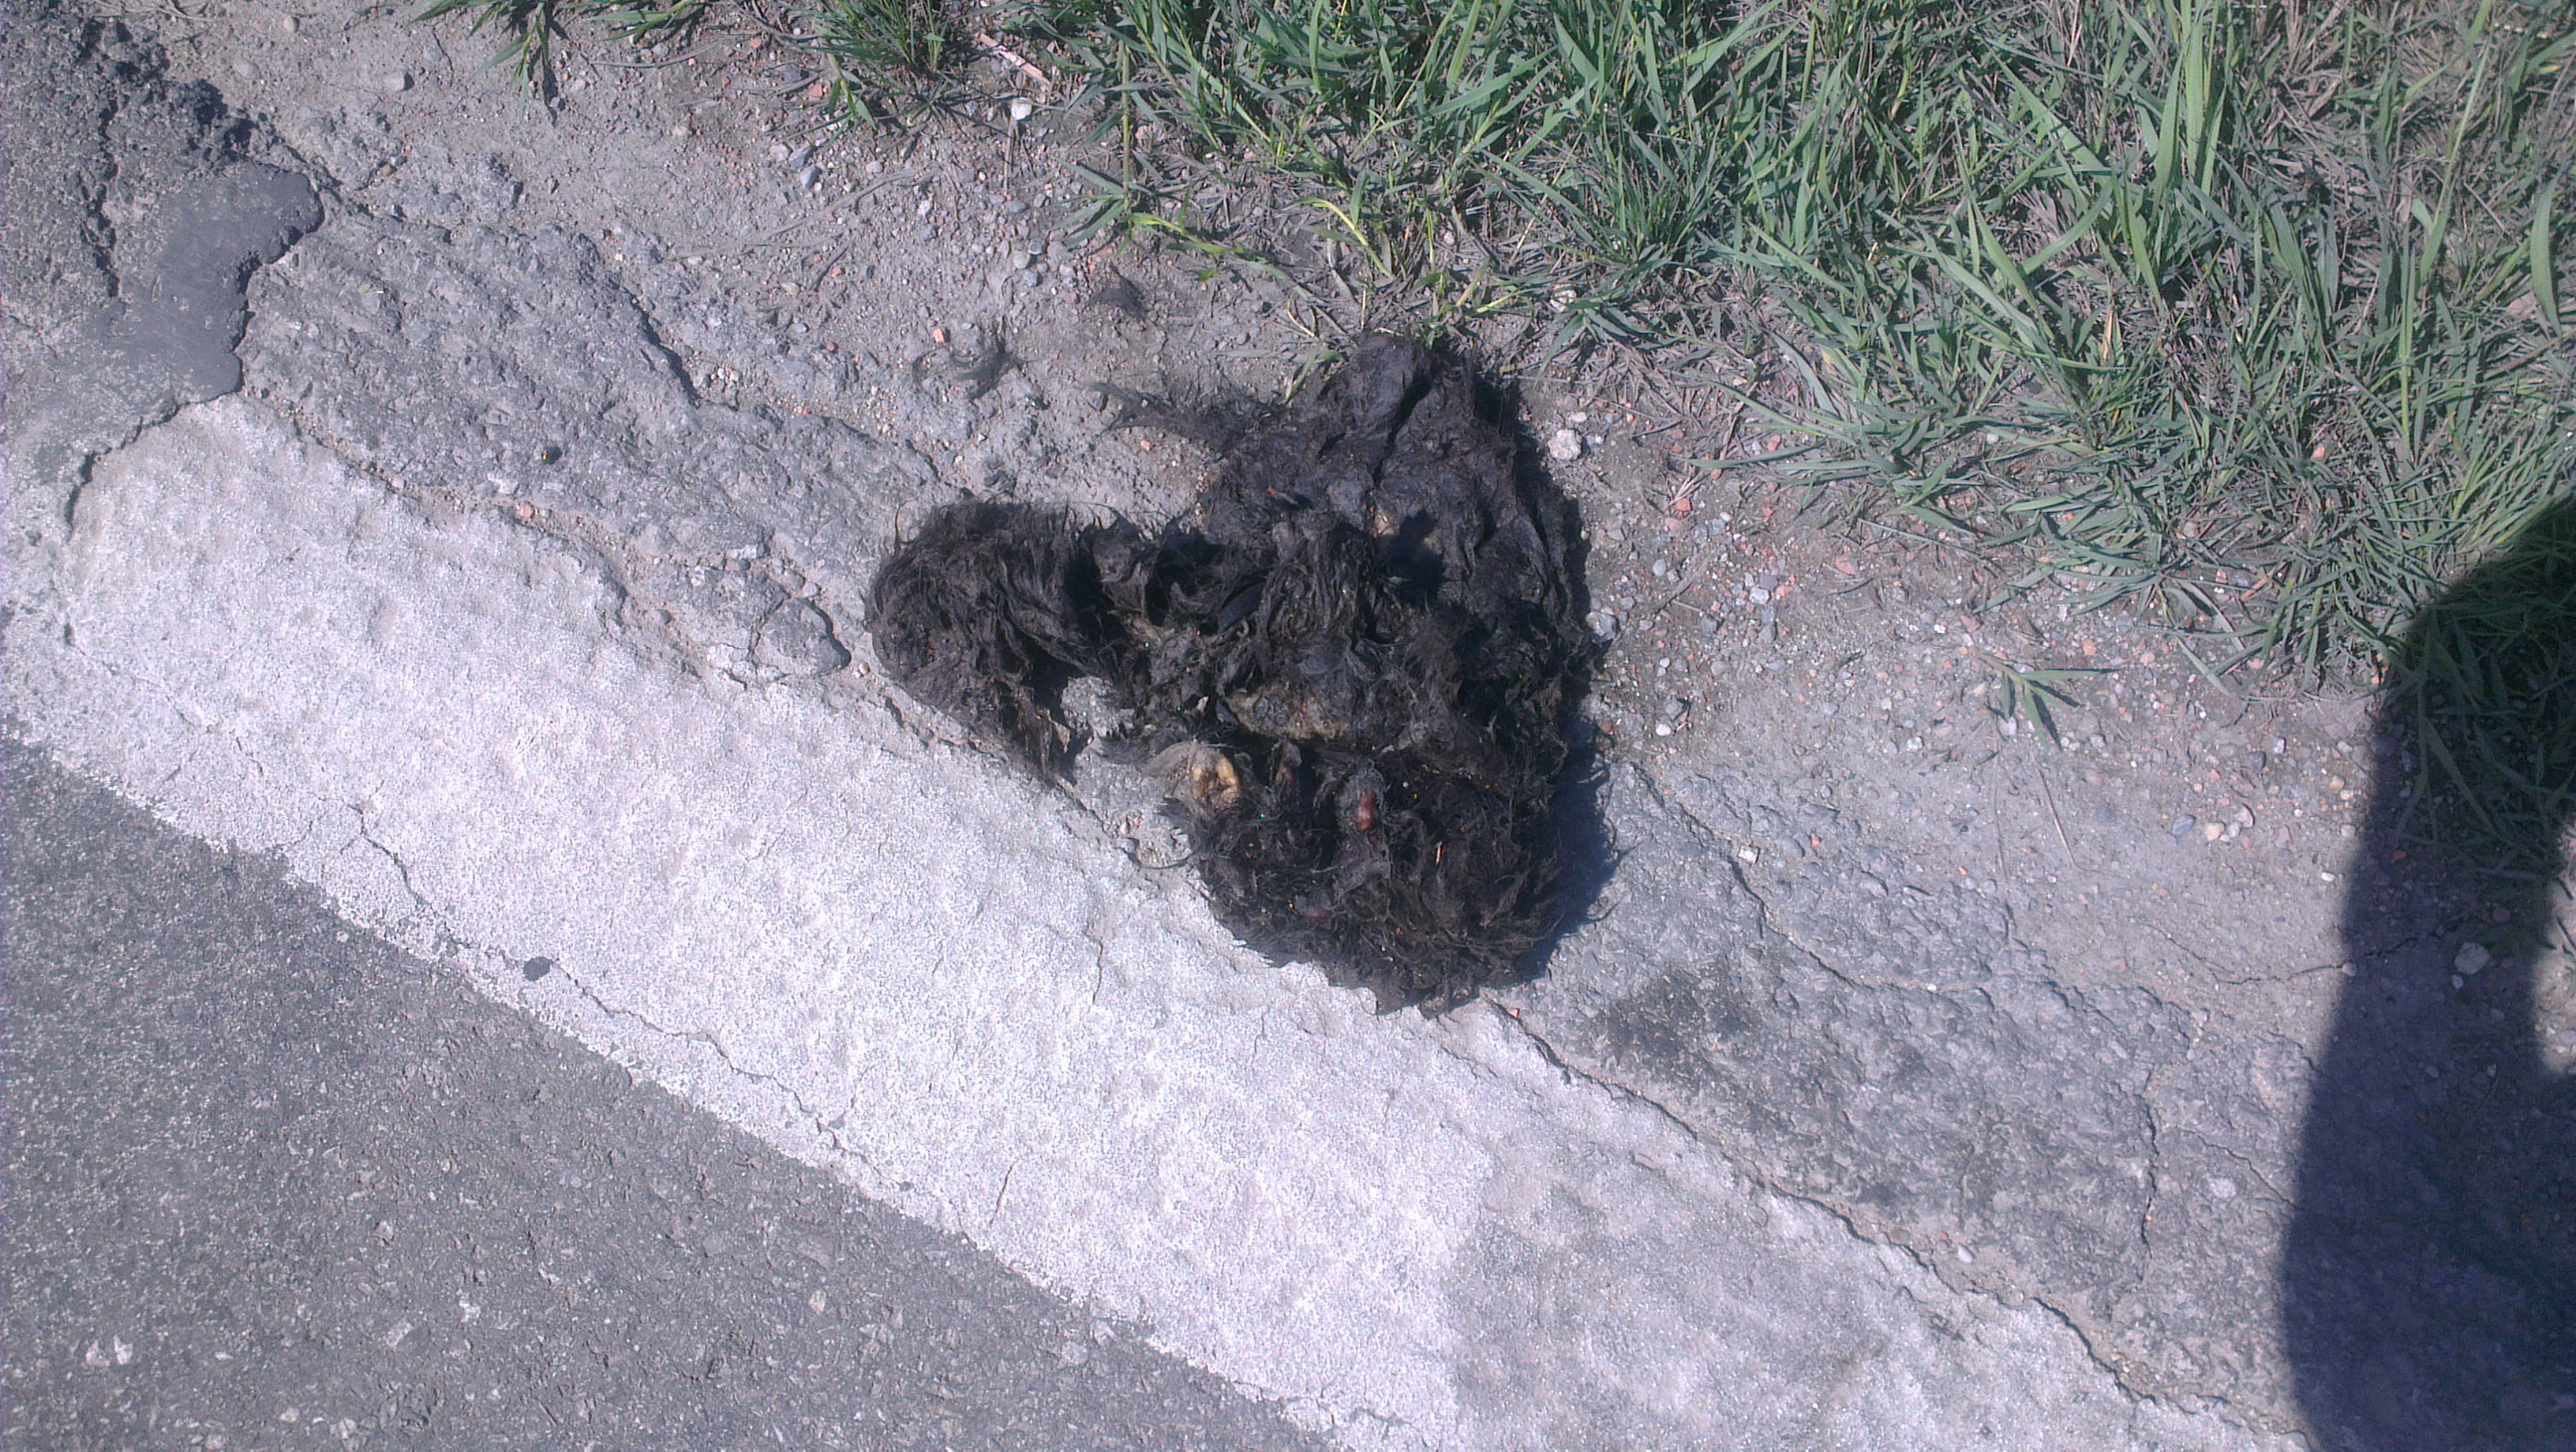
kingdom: Animalia
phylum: Chordata
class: Mammalia
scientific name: Mammalia
